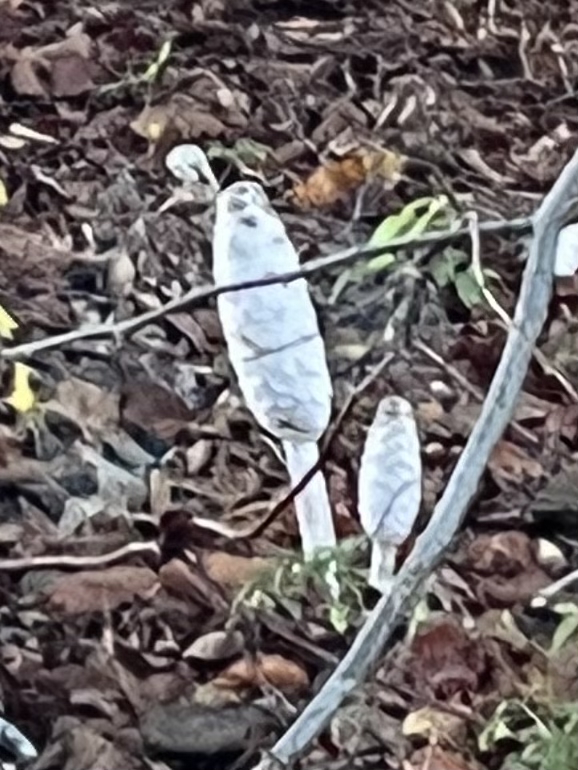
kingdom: Fungi
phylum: Basidiomycota
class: Agaricomycetes
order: Agaricales
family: Agaricaceae
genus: Coprinus
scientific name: Coprinus comatus
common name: stor parykhat
